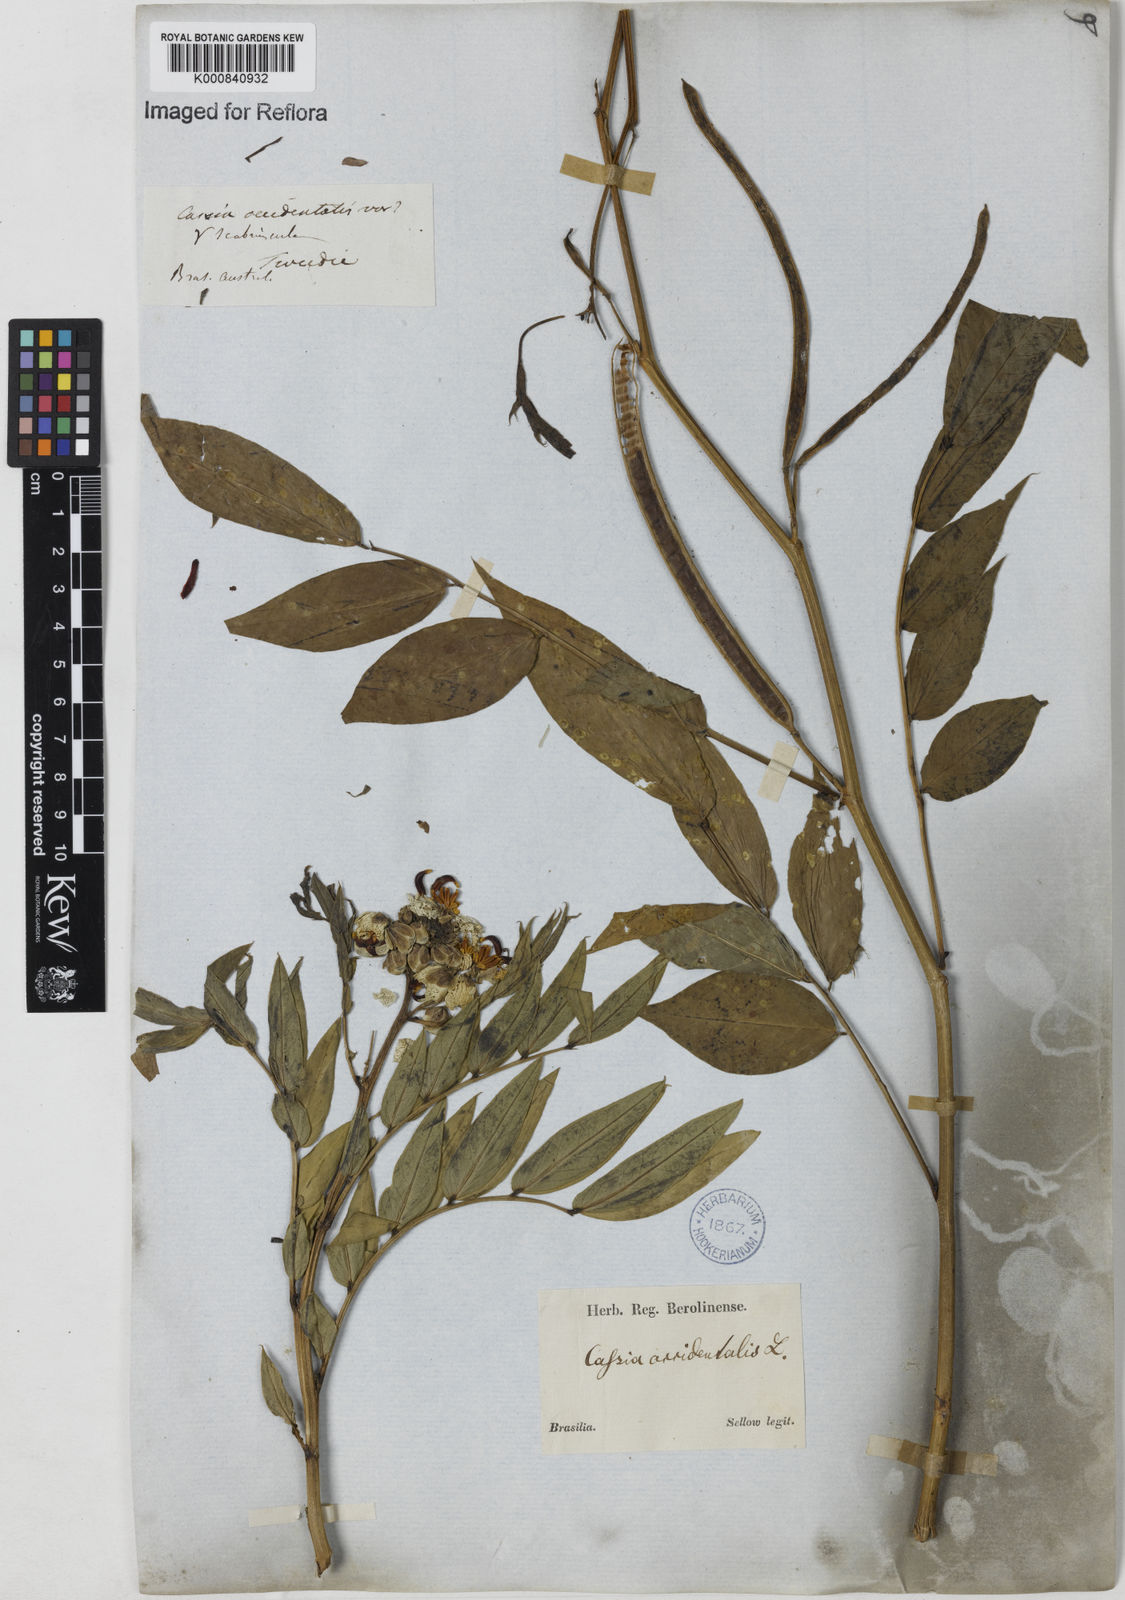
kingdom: Plantae
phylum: Tracheophyta
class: Magnoliopsida
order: Fabales
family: Fabaceae
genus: Senna
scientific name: Senna occidentalis
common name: Septicweed
